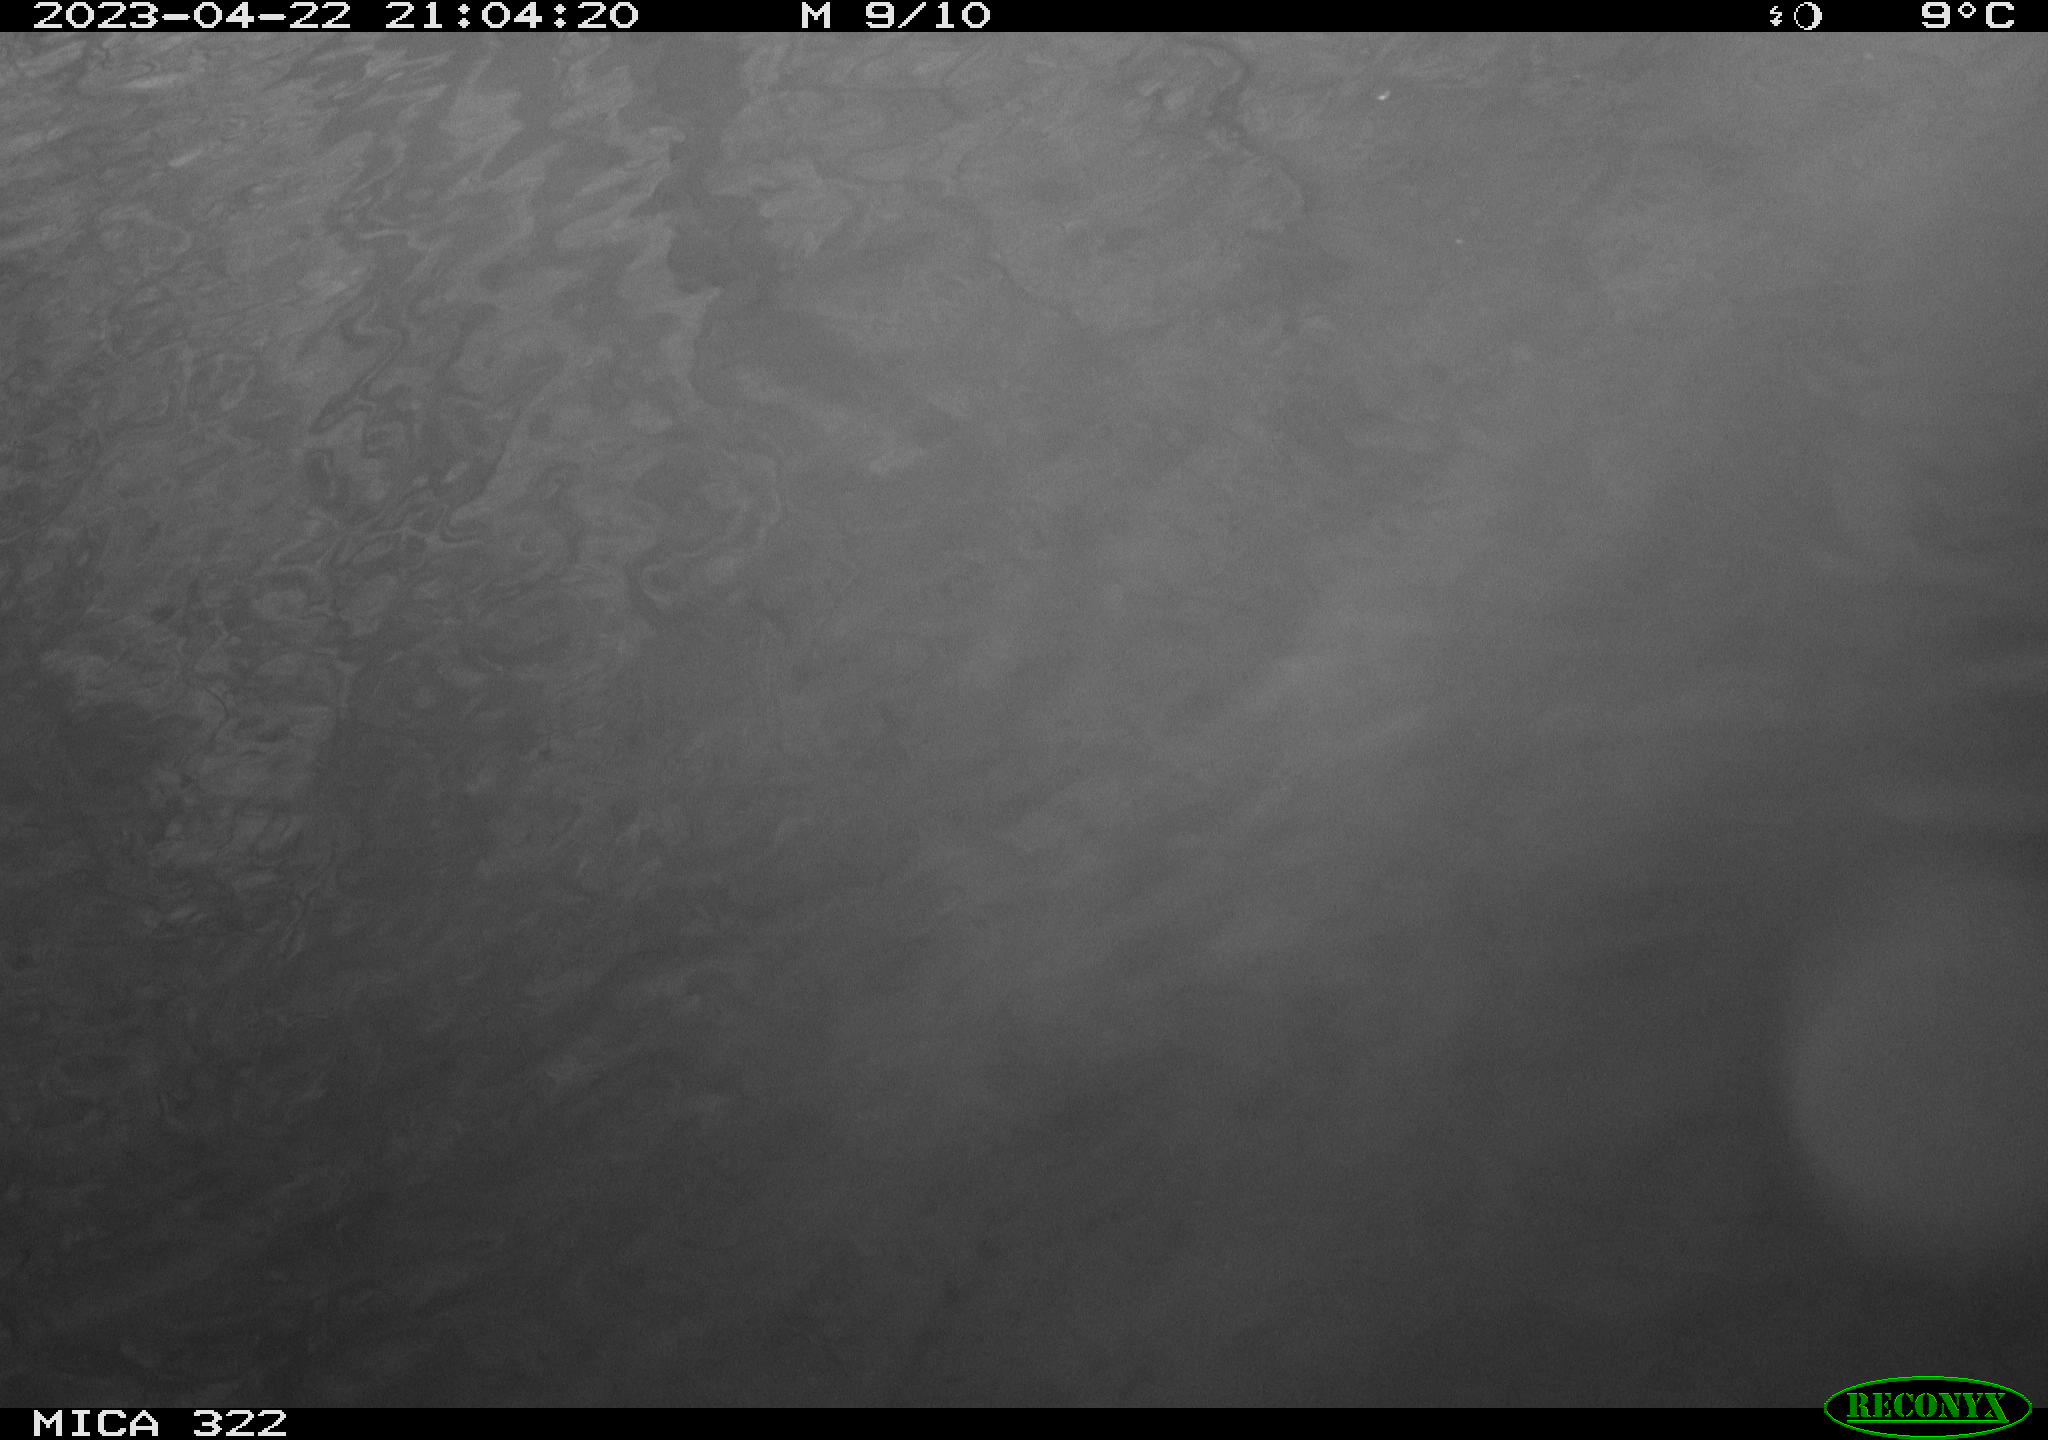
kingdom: Animalia
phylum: Chordata
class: Aves
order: Anseriformes
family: Anatidae
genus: Anas
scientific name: Anas
